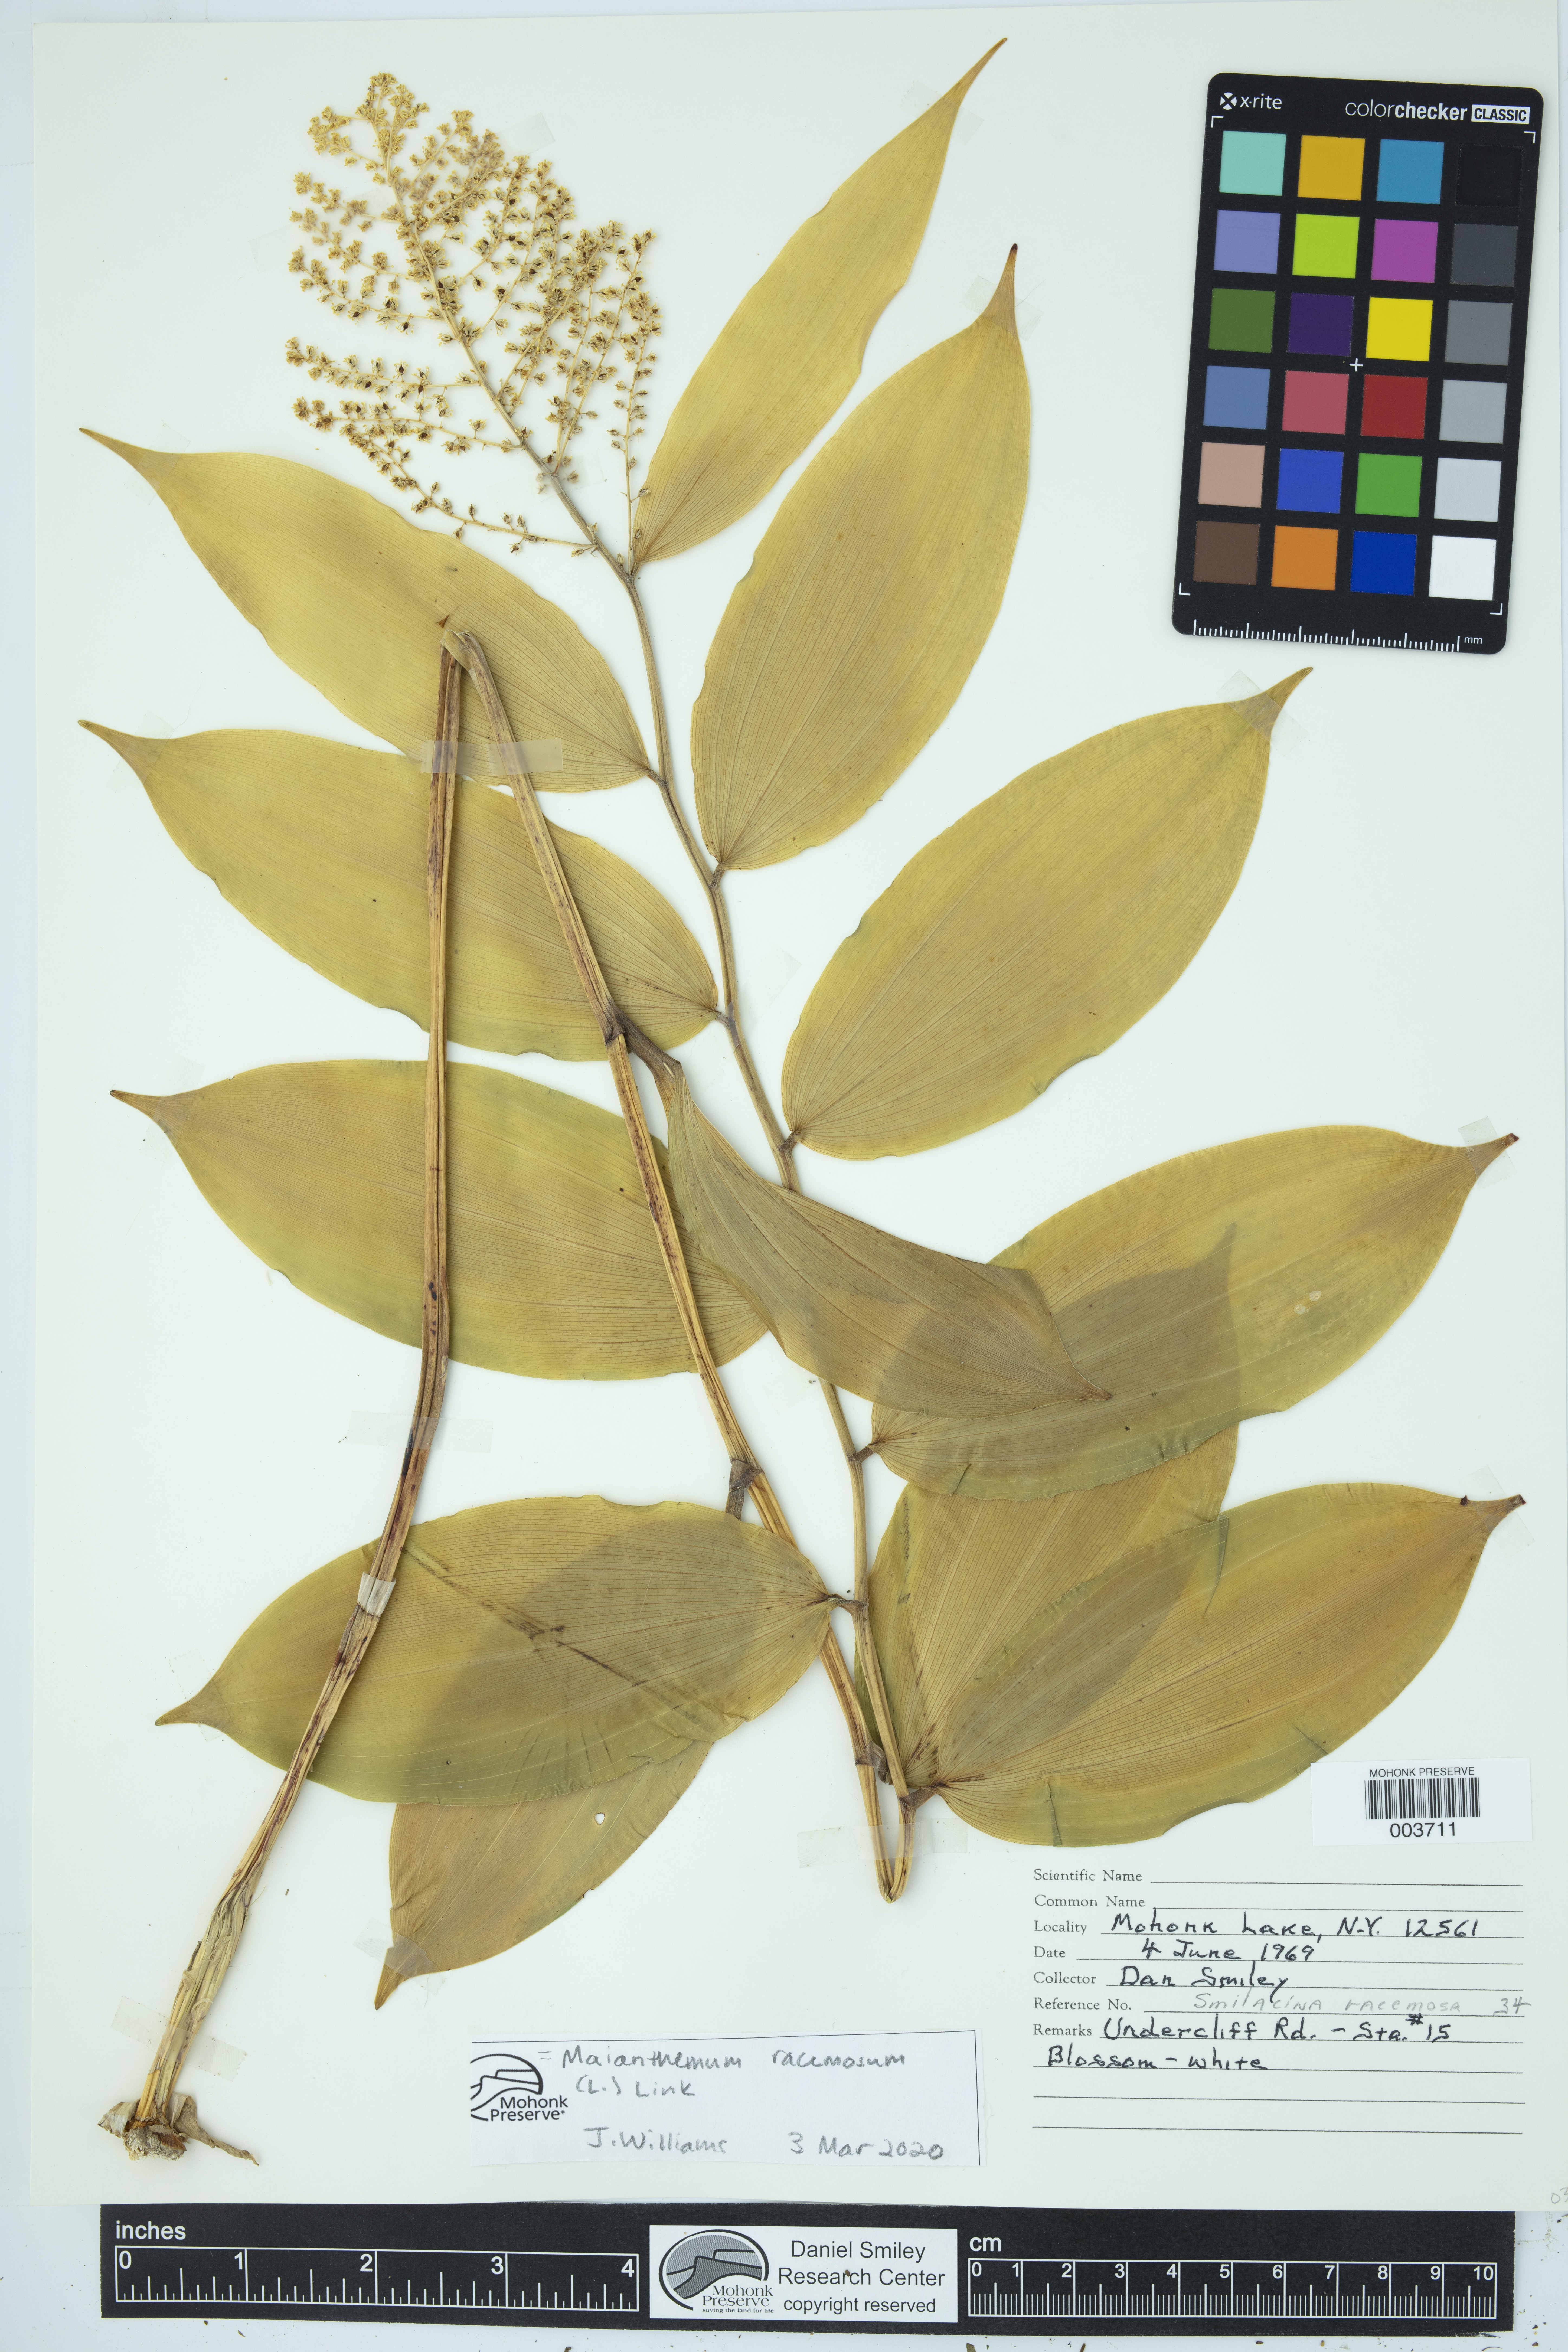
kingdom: Plantae
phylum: Tracheophyta
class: Liliopsida
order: Asparagales
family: Asparagaceae
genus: Maianthemum
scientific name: Maianthemum racemosum
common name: False spikenard
